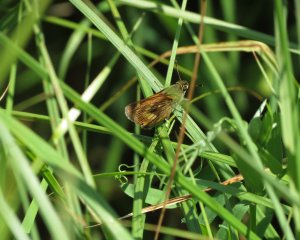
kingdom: Animalia
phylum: Arthropoda
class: Insecta
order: Lepidoptera
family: Hesperiidae
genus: Polites
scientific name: Polites
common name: Long Dash Skipper
